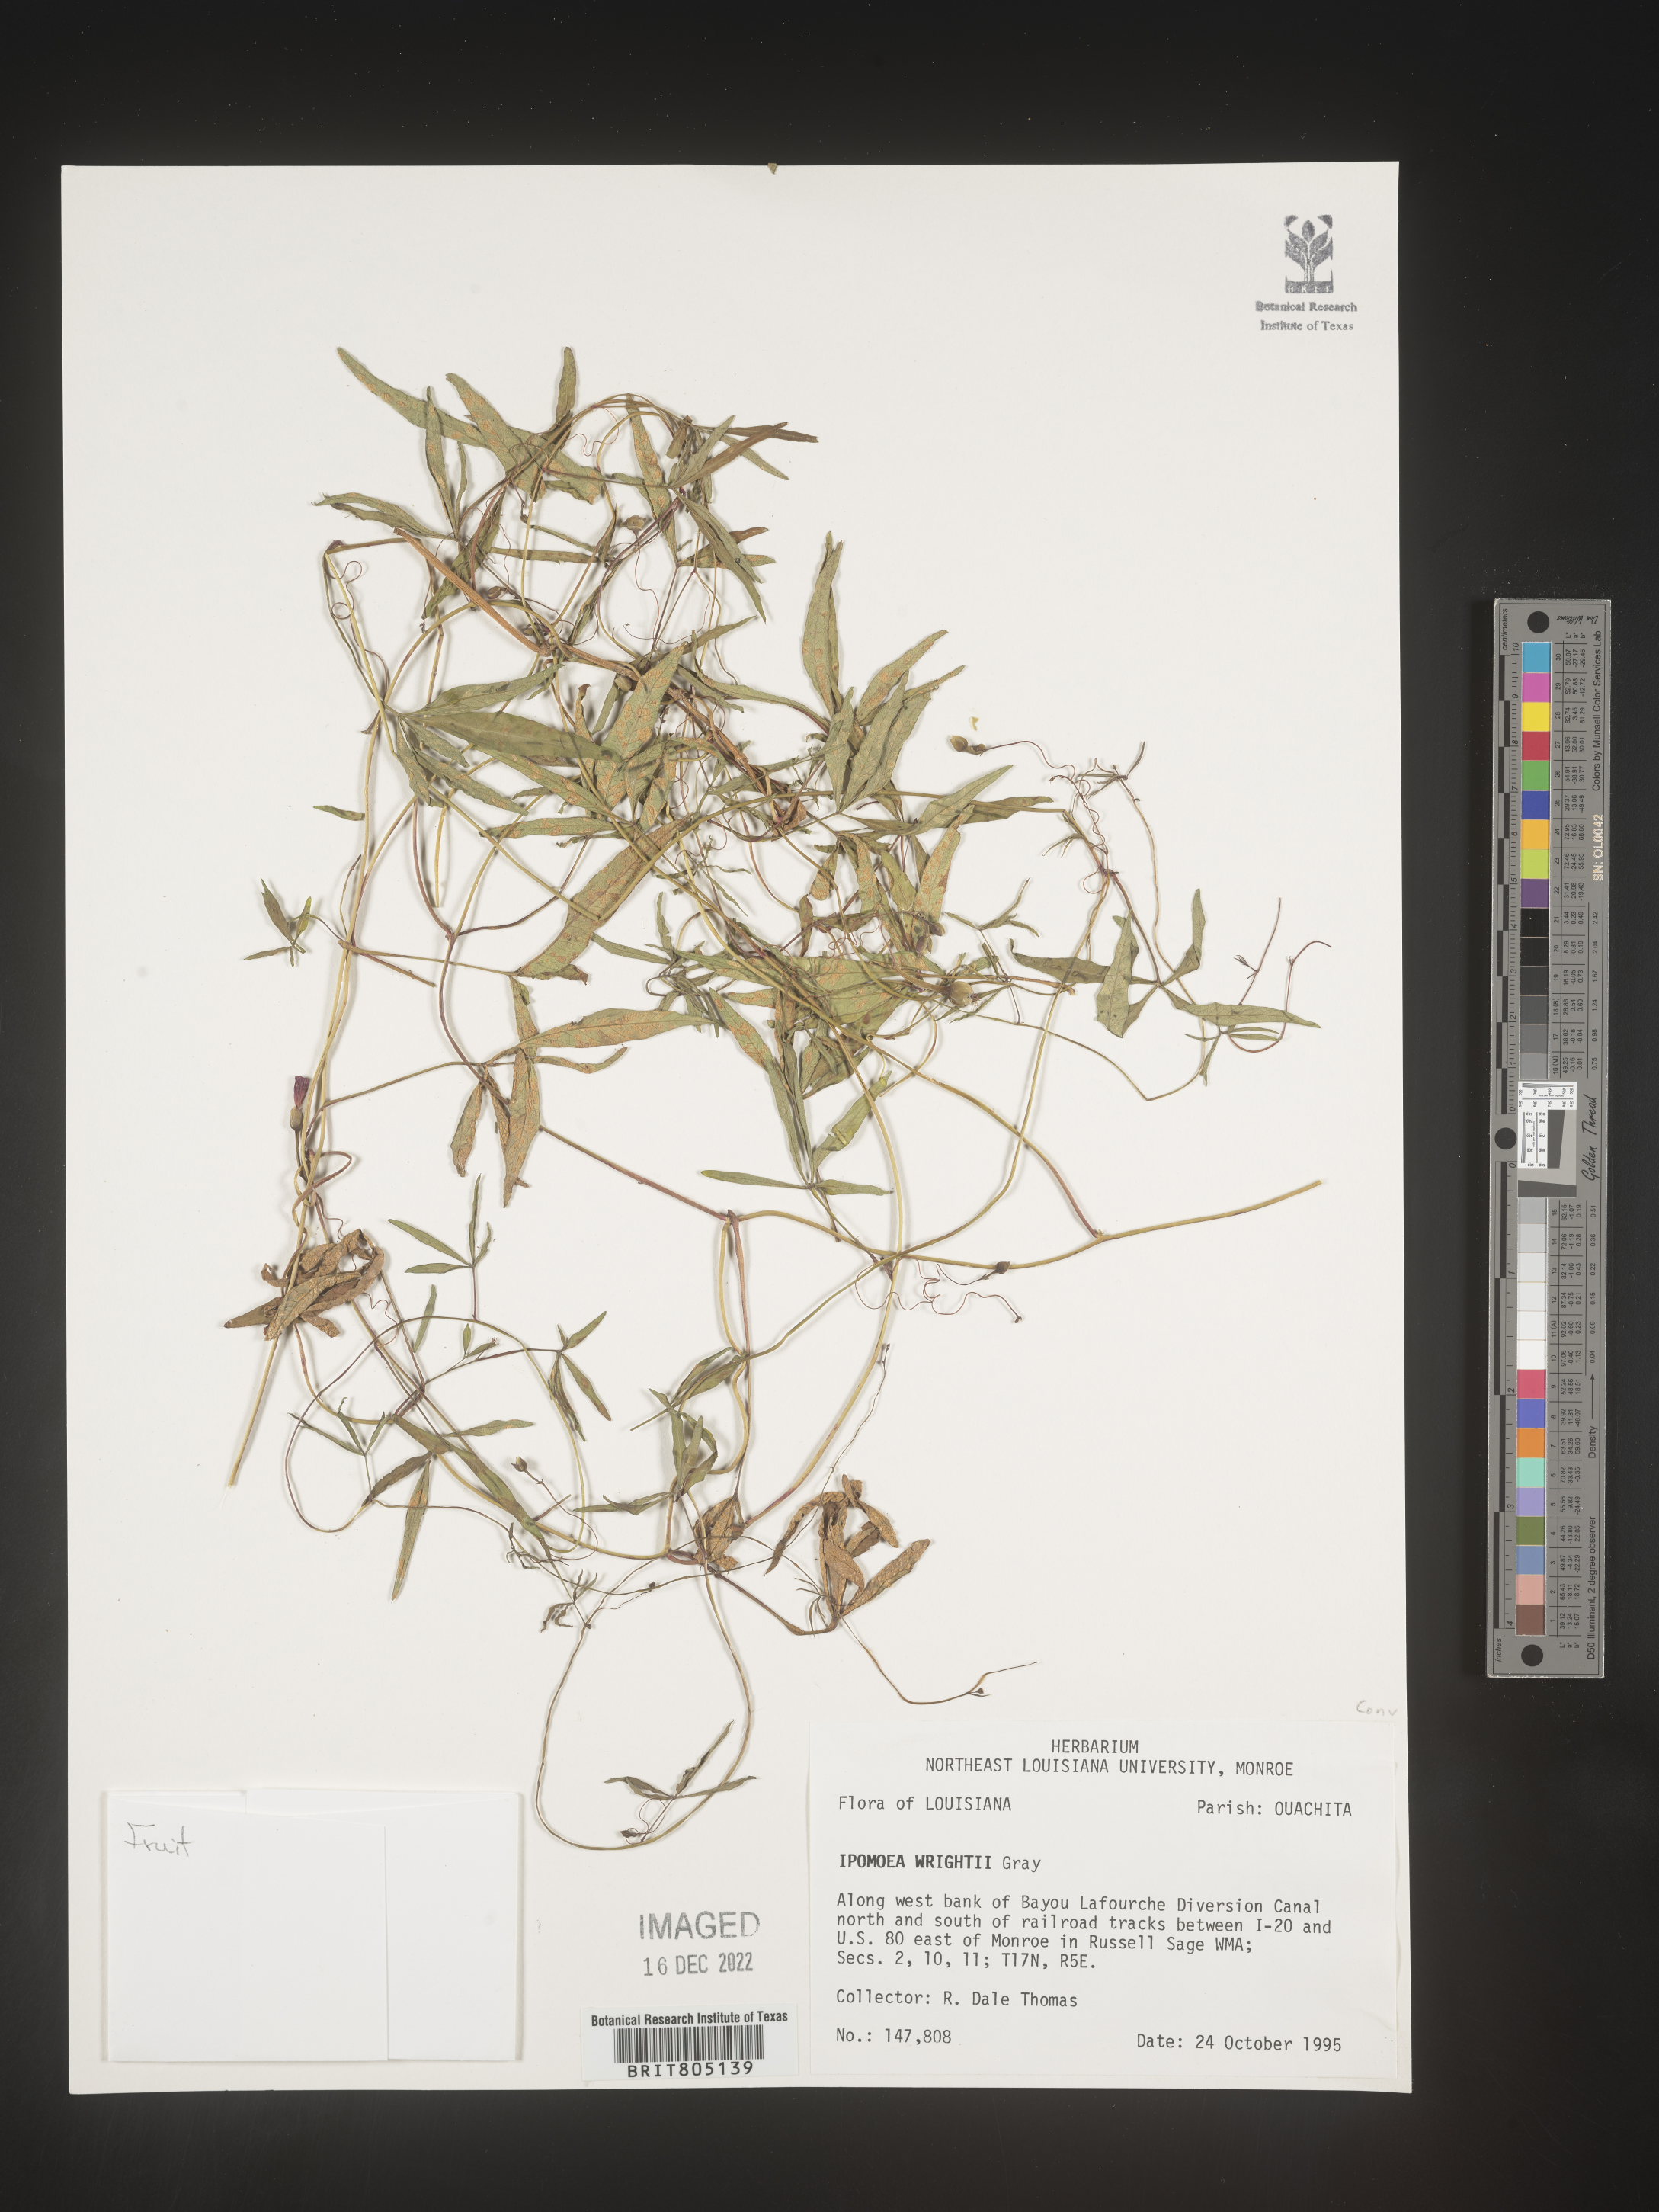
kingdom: Plantae
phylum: Tracheophyta
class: Magnoliopsida
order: Solanales
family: Convolvulaceae
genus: Ipomoea
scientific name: Ipomoea heptaphylla
